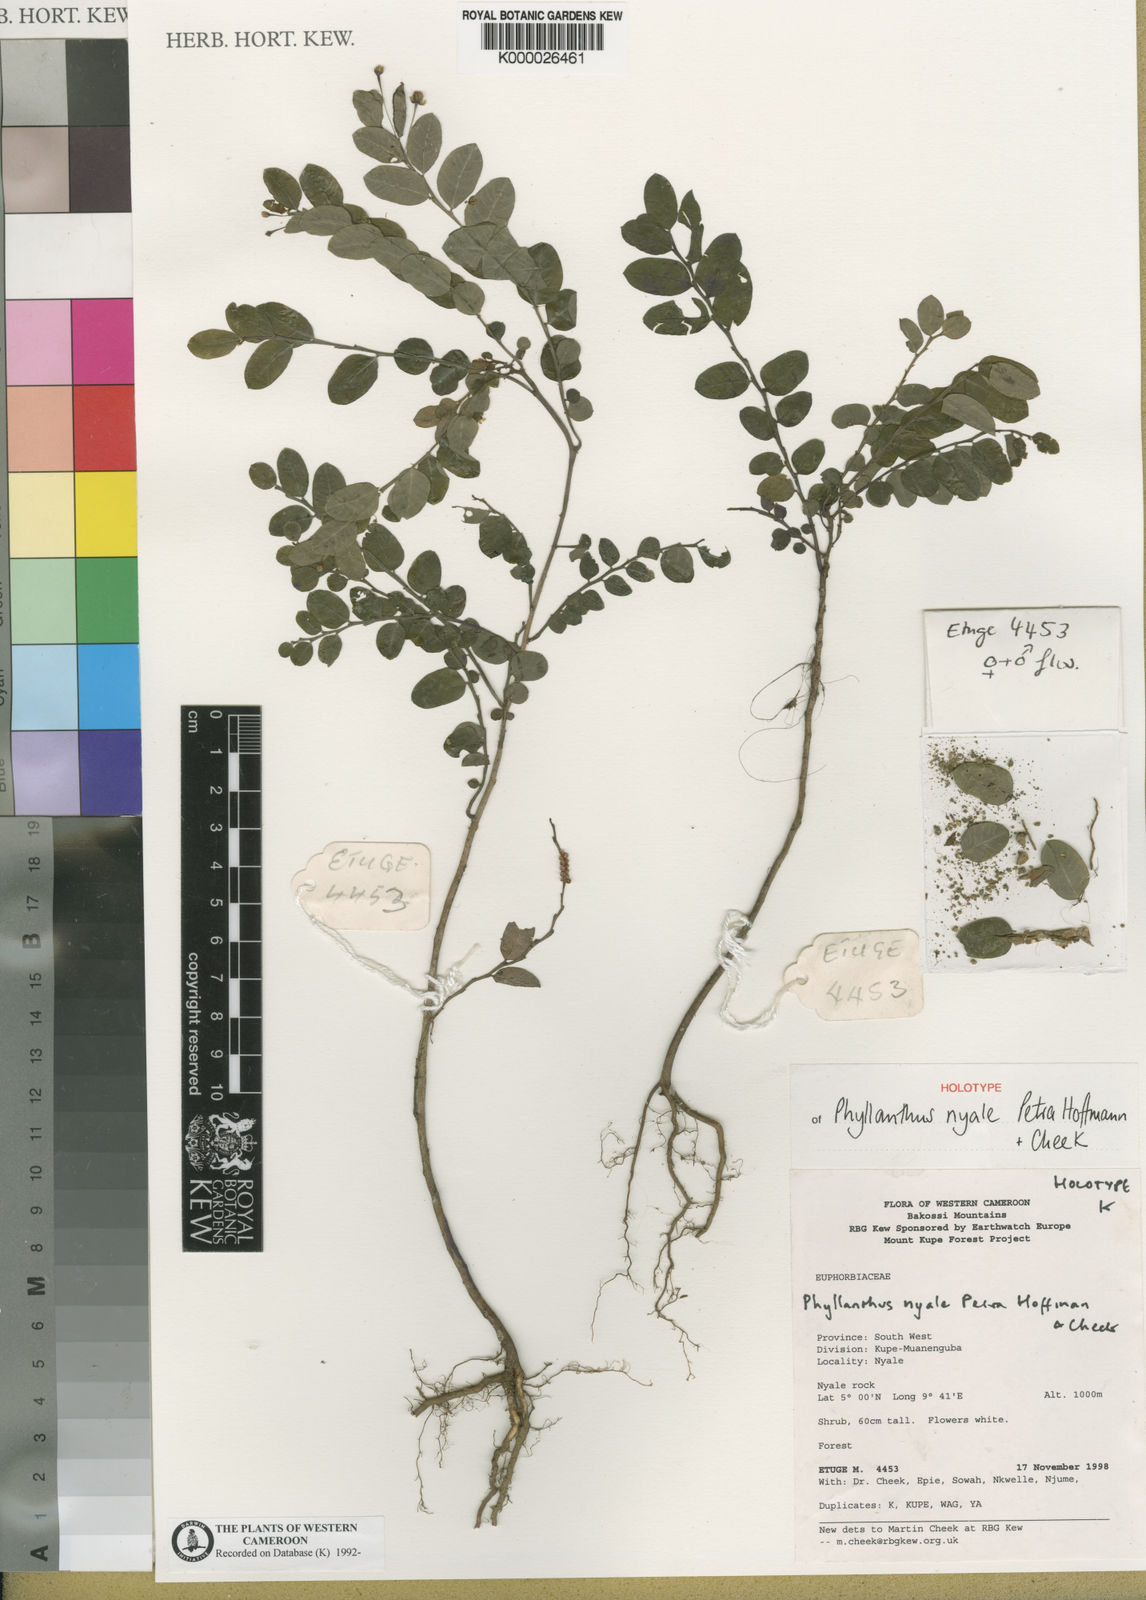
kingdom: Plantae
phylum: Tracheophyta
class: Magnoliopsida
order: Malpighiales
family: Phyllanthaceae
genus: Phyllanthus
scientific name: Phyllanthus nyale
